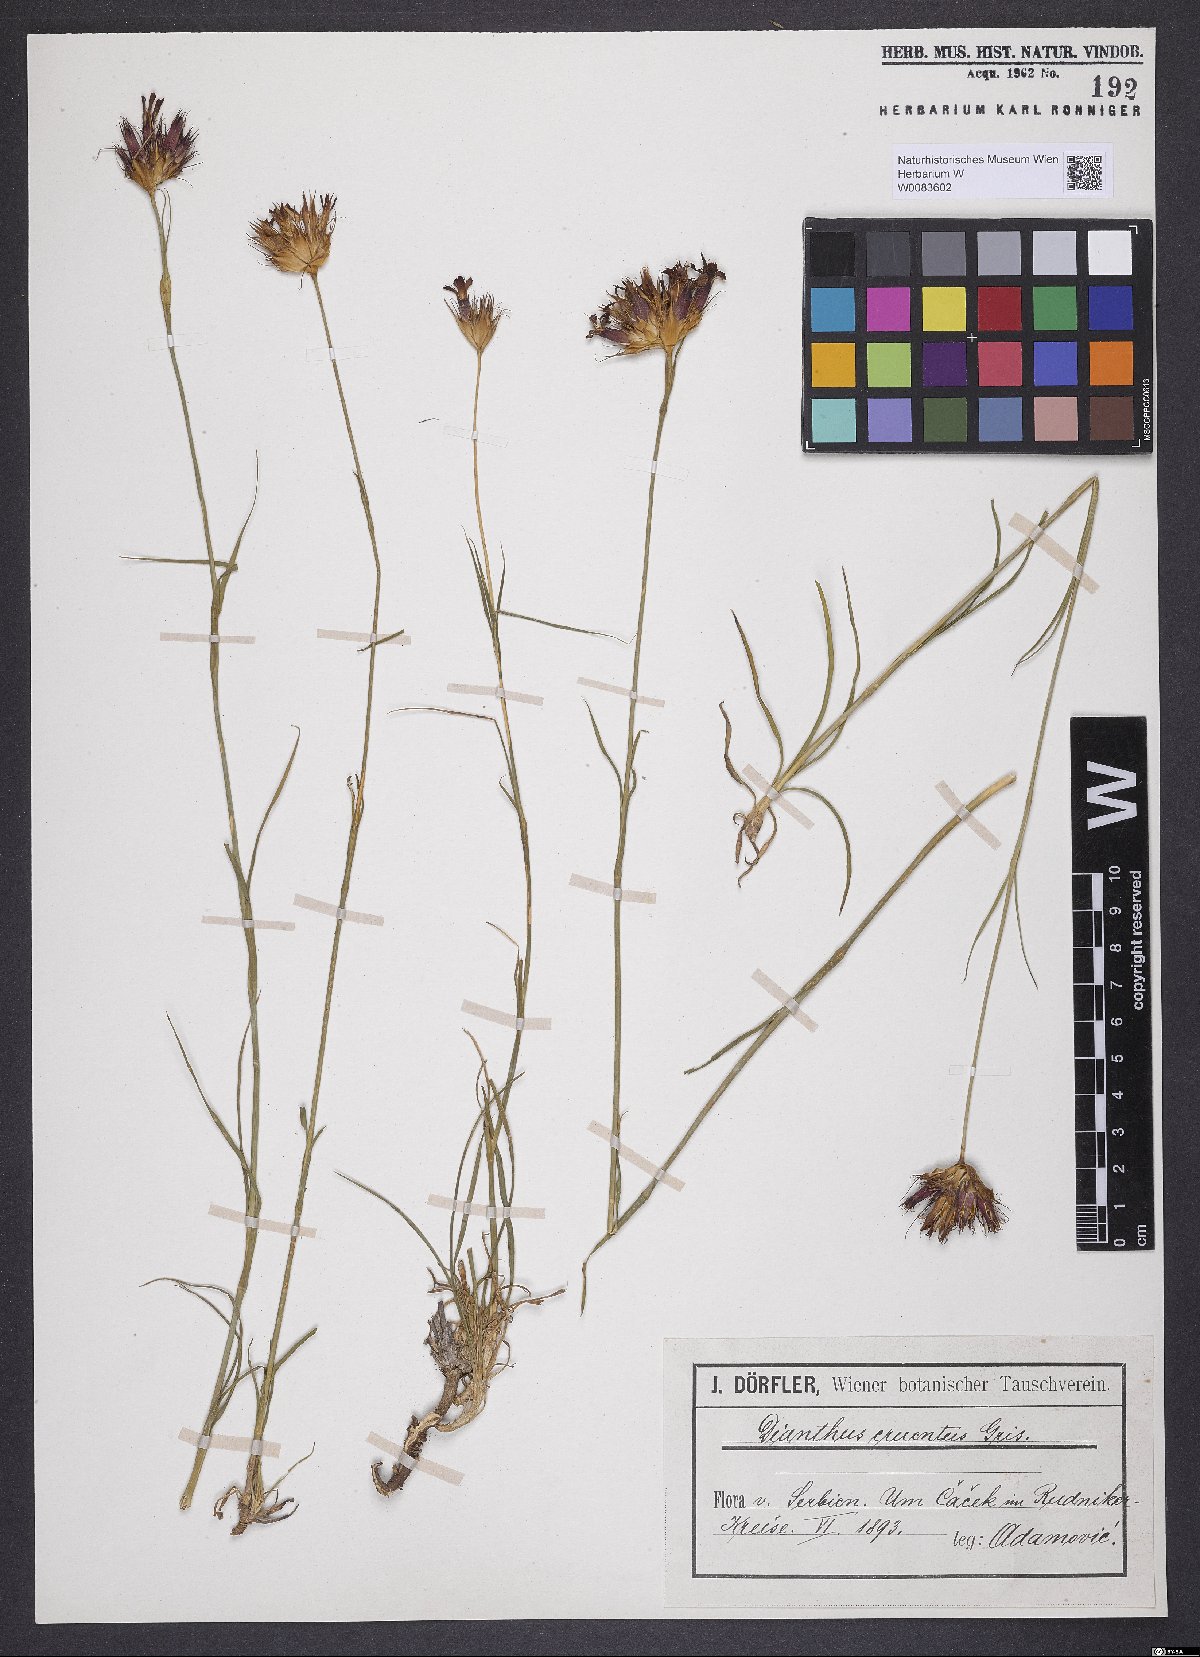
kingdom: Plantae
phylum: Tracheophyta
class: Magnoliopsida
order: Caryophyllales
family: Caryophyllaceae
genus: Dianthus
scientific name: Dianthus cruentus
